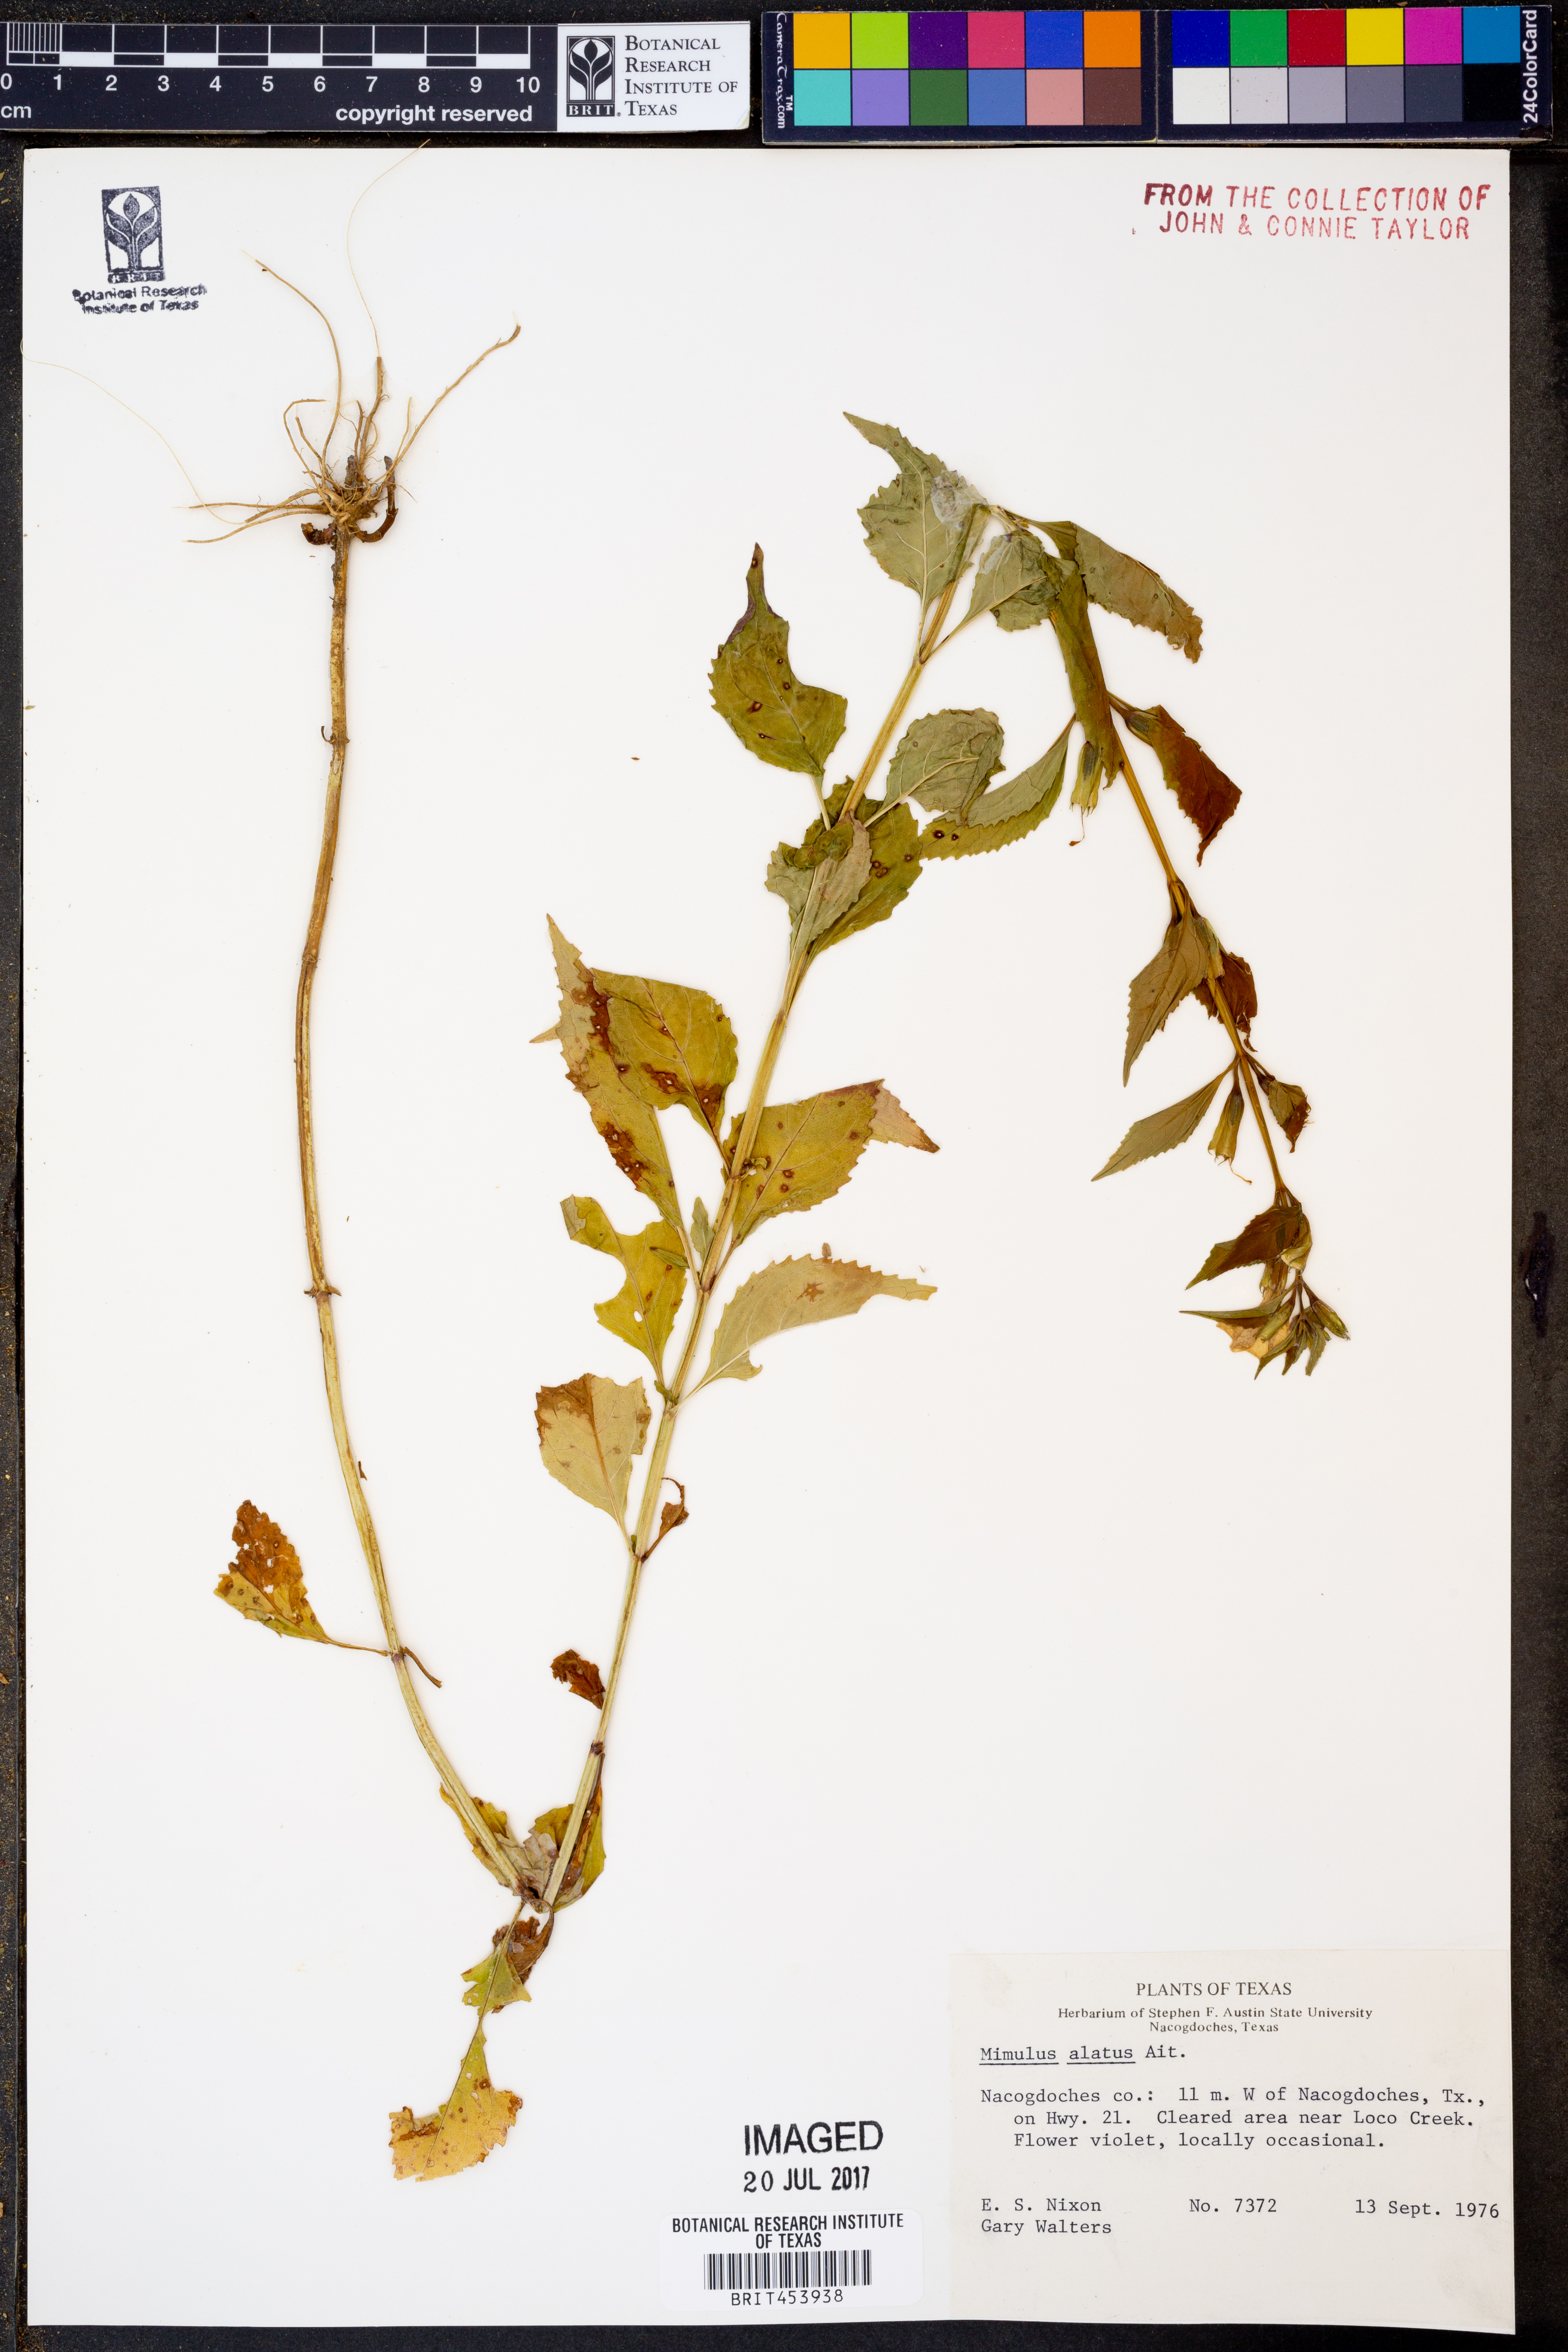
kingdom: Plantae
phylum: Tracheophyta
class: Magnoliopsida
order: Lamiales
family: Phrymaceae
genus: Mimulus
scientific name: Mimulus alatus
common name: Sharp-wing monkey-flower
